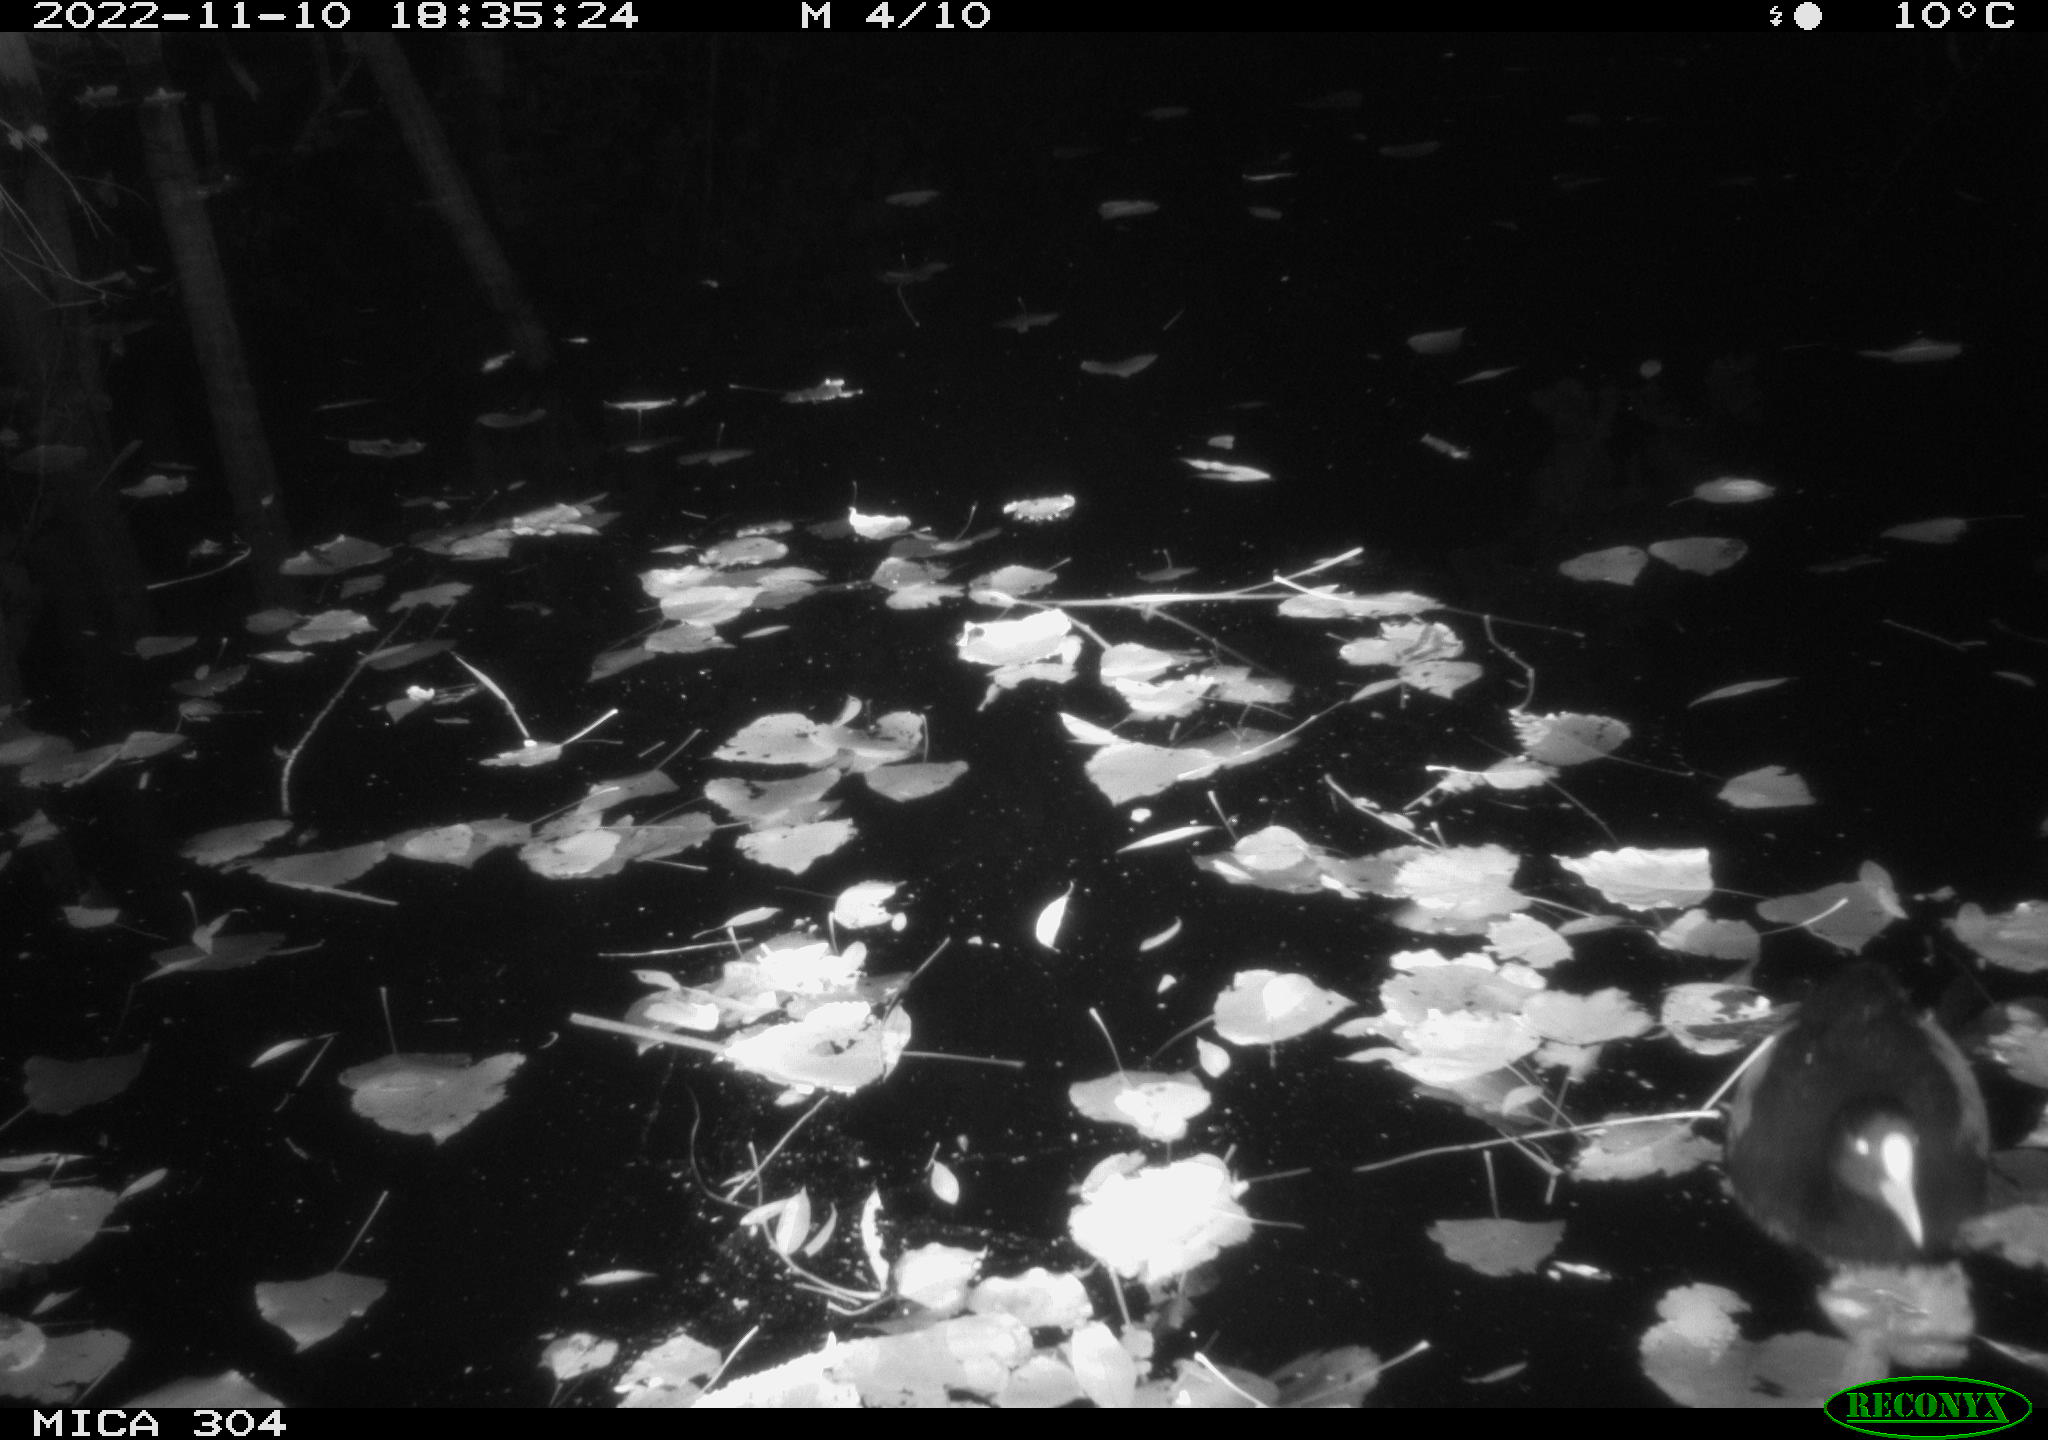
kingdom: Animalia
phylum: Chordata
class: Aves
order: Gruiformes
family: Rallidae
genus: Fulica
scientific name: Fulica atra
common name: Eurasian coot
